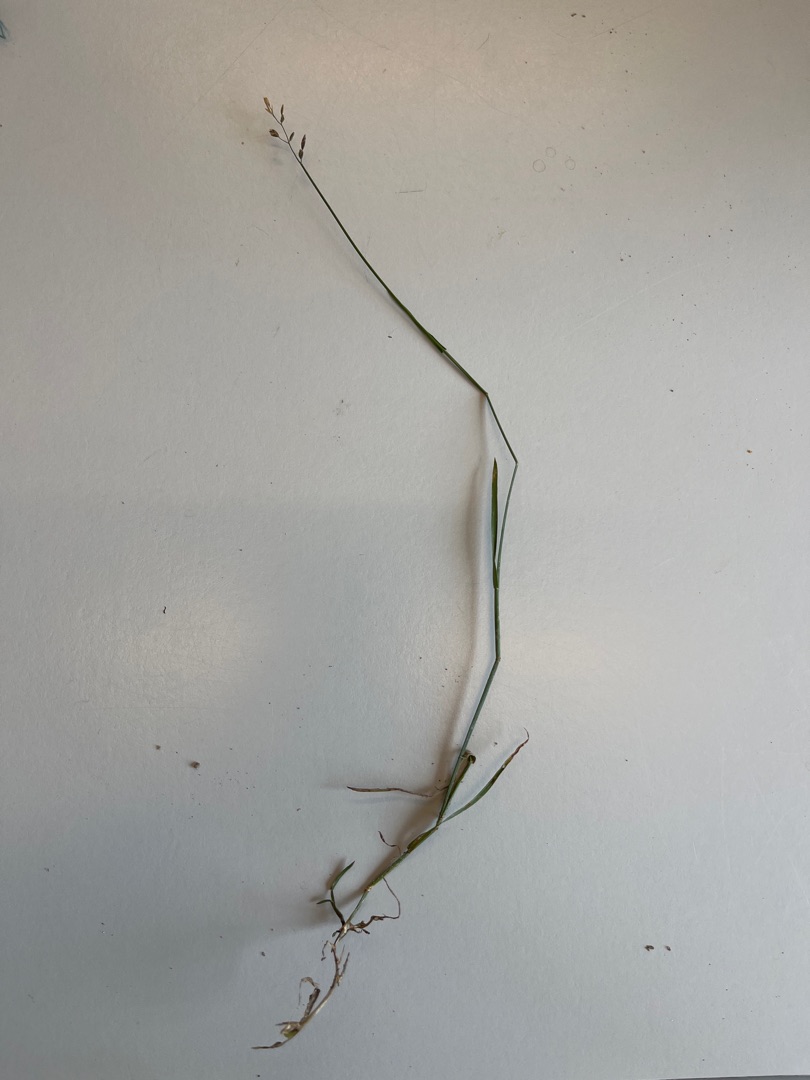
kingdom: Plantae
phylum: Tracheophyta
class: Liliopsida
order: Poales
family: Poaceae
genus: Poa
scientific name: Poa compressa
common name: Fladstrået rapgræs
